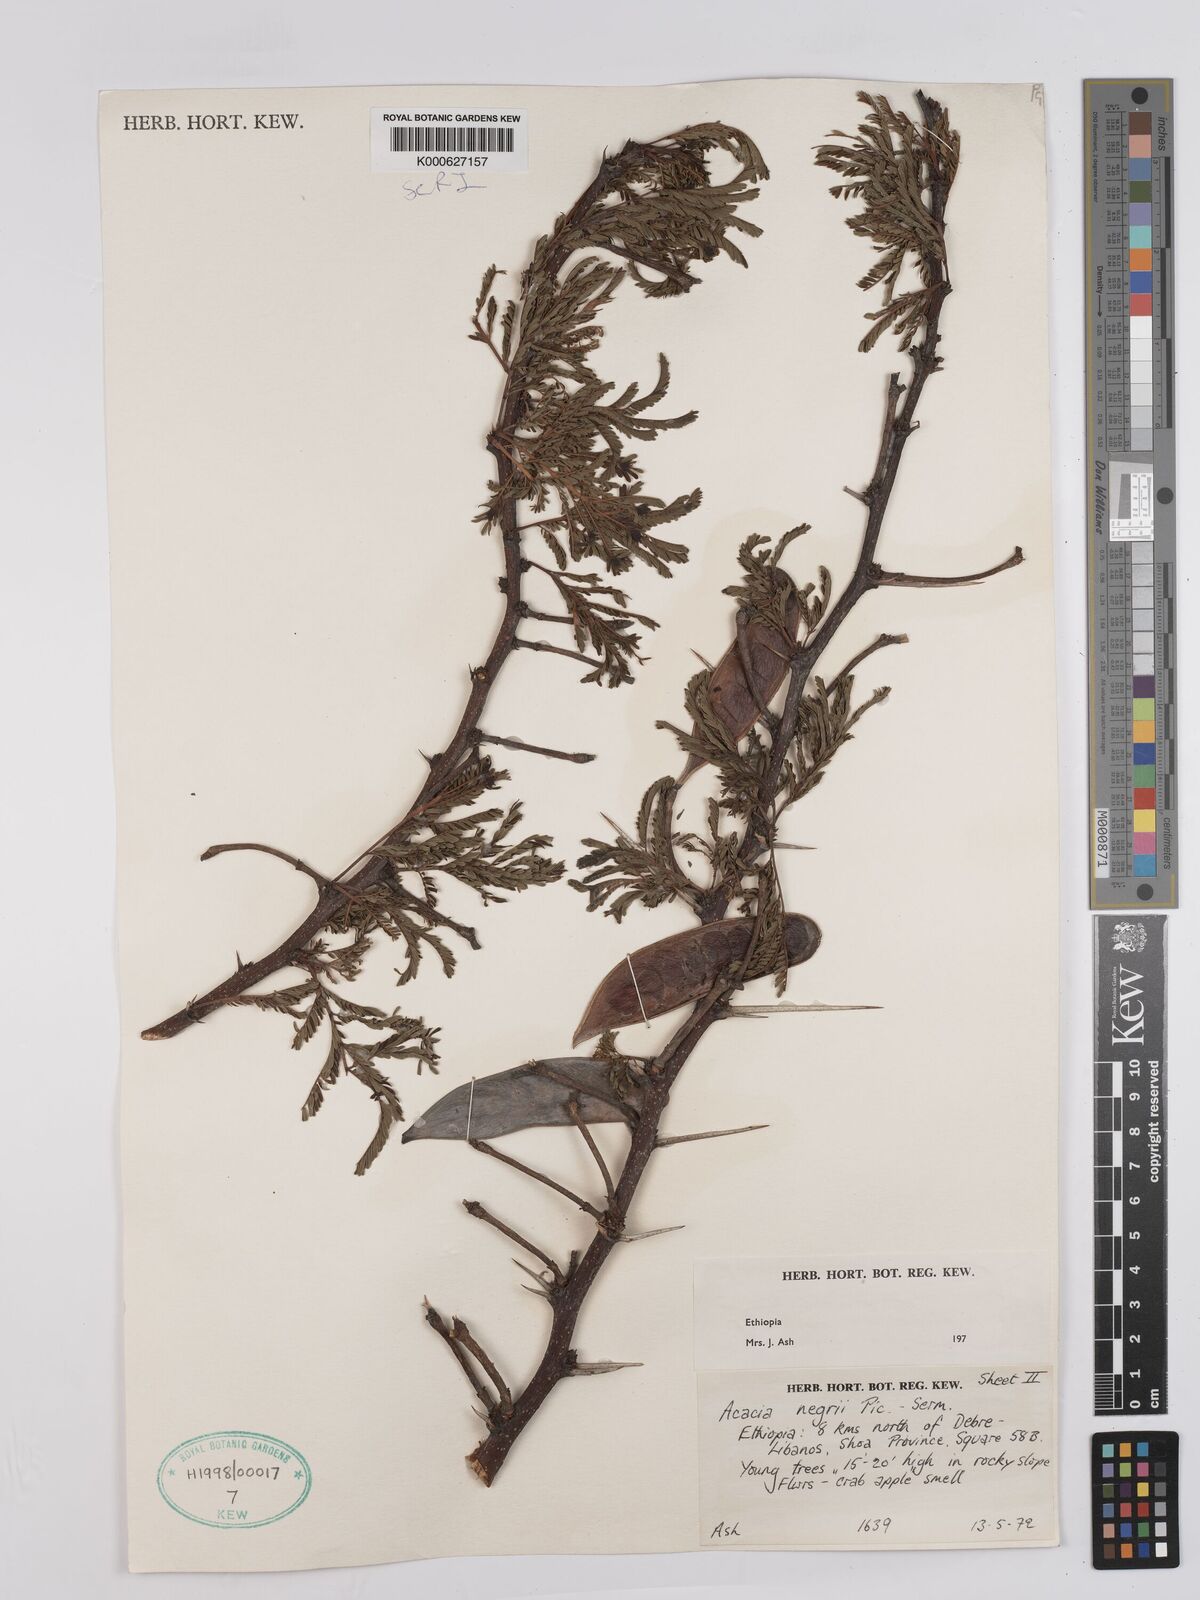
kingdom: Plantae
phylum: Tracheophyta
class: Magnoliopsida
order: Fabales
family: Fabaceae
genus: Vachellia
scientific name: Vachellia negrii
